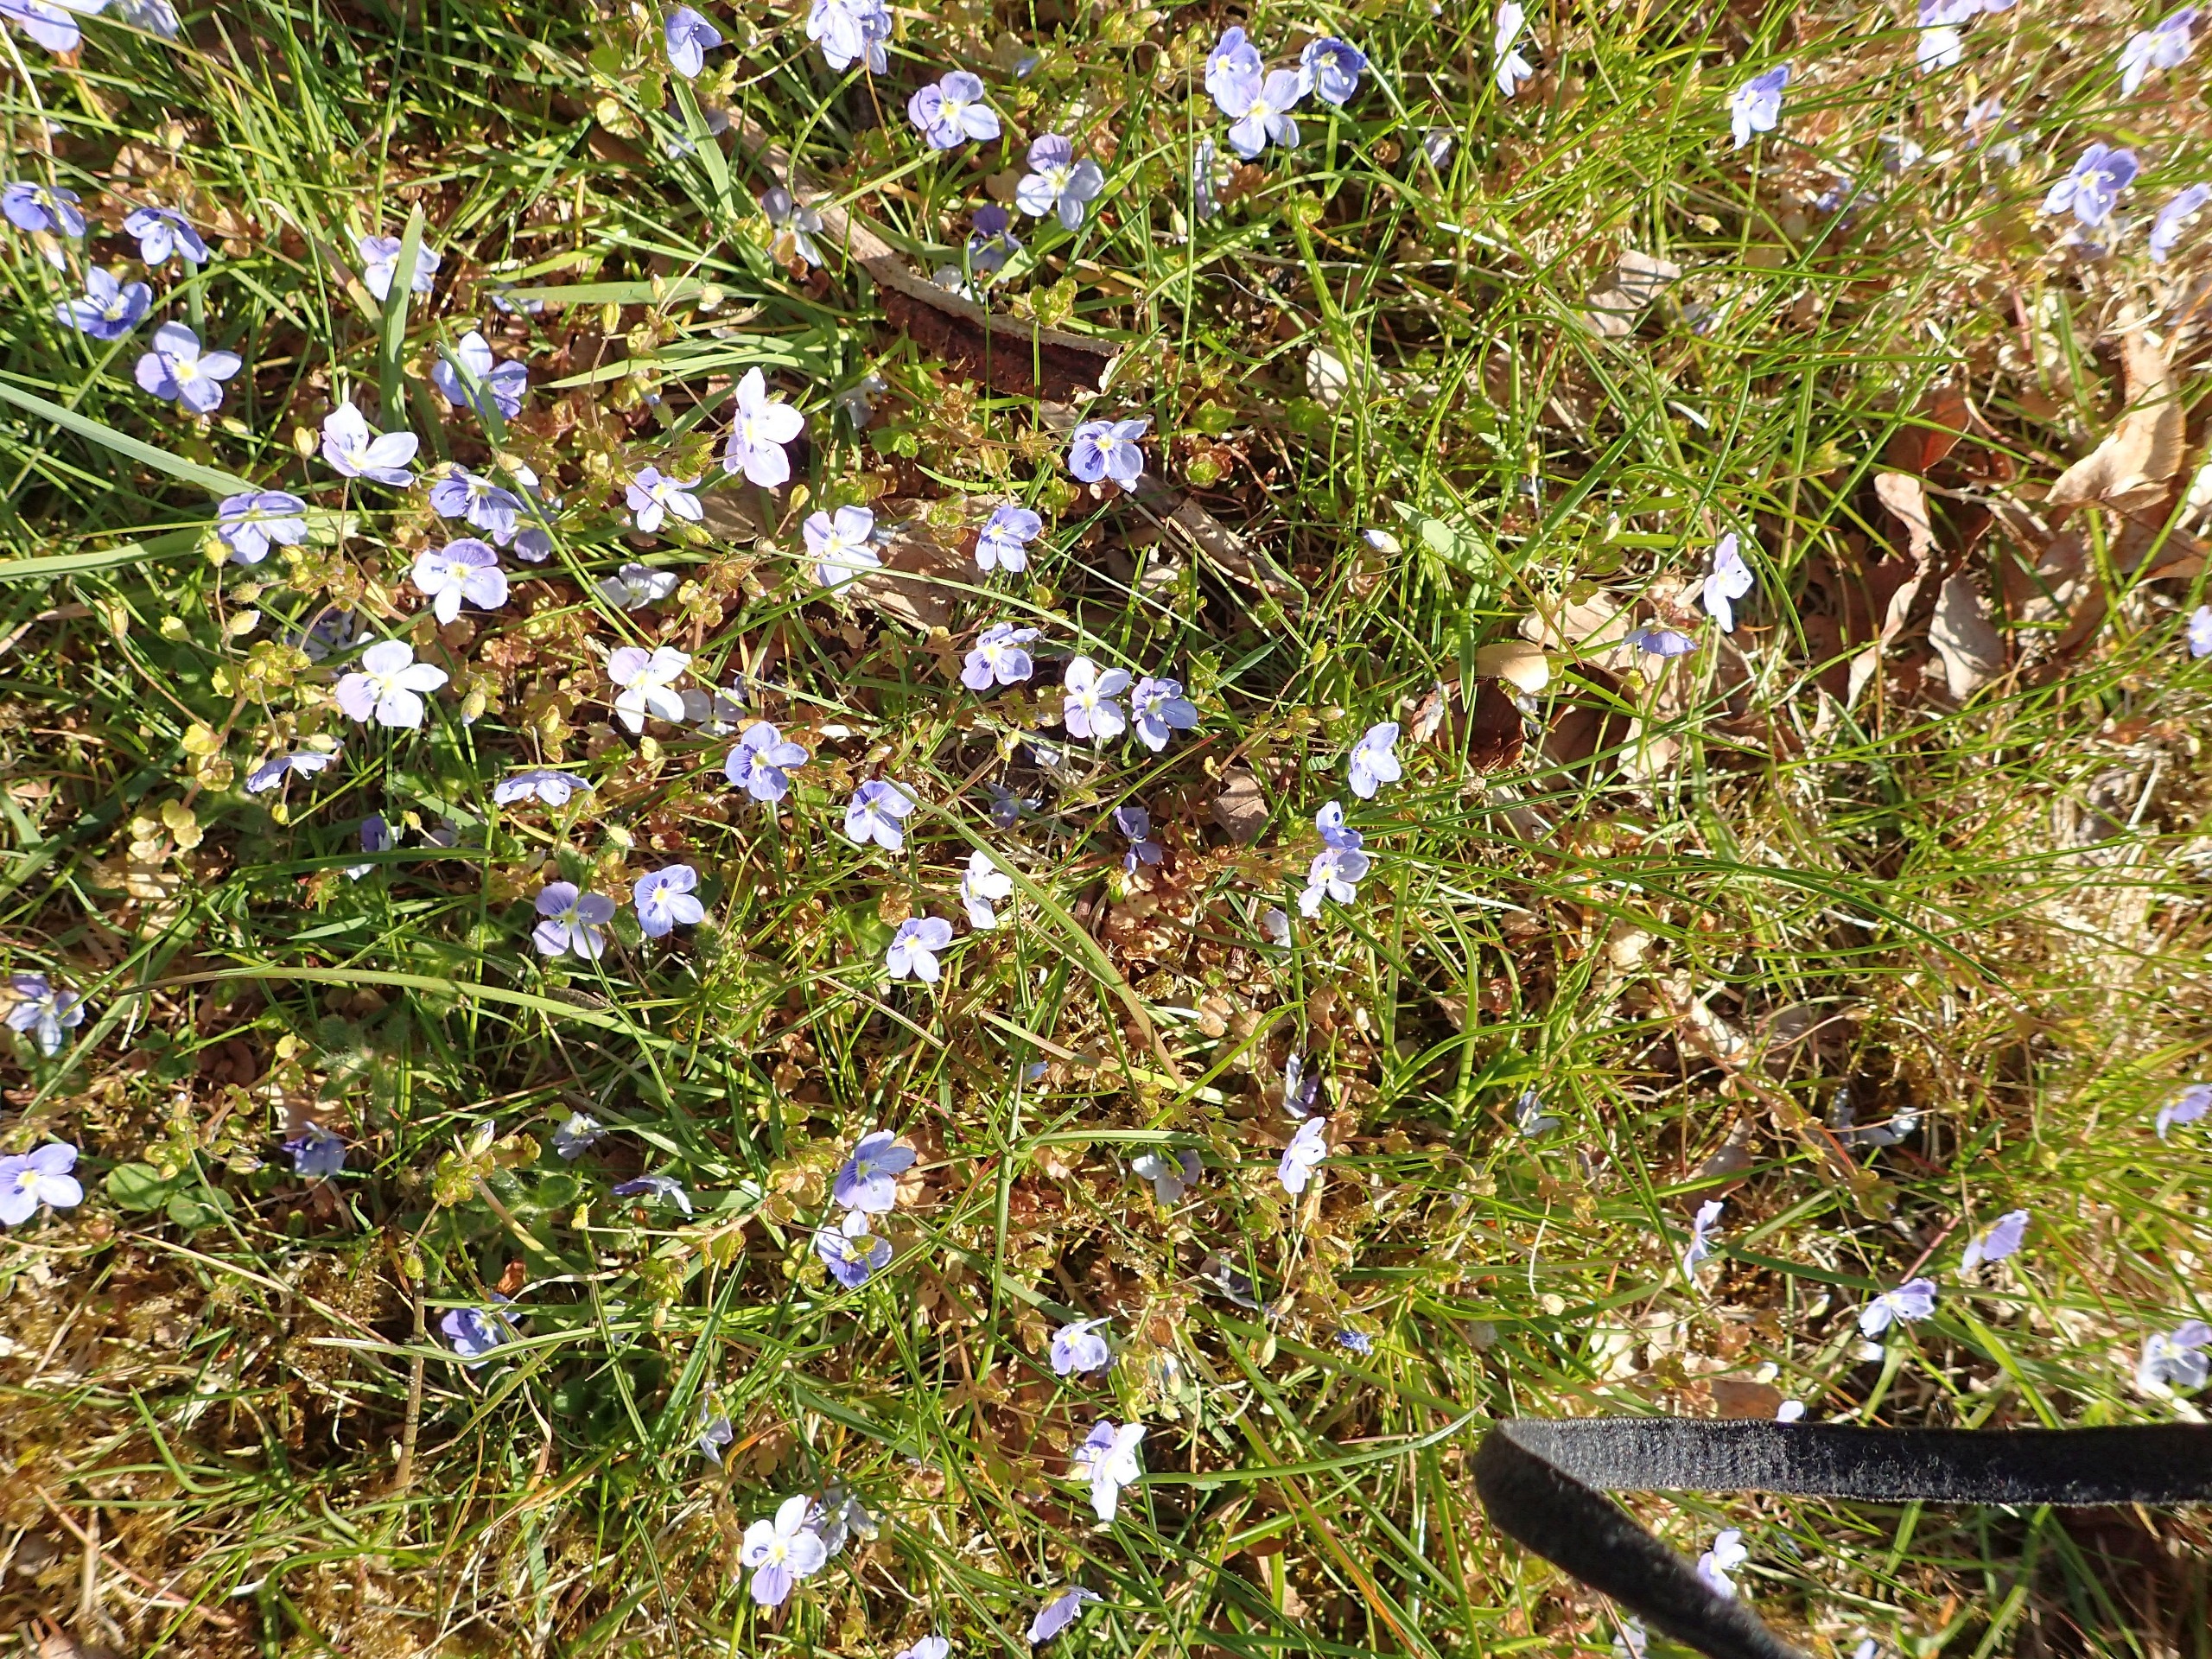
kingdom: Plantae
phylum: Tracheophyta
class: Magnoliopsida
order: Lamiales
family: Plantaginaceae
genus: Veronica
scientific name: Veronica filiformis
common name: Tråd-ærenpris
